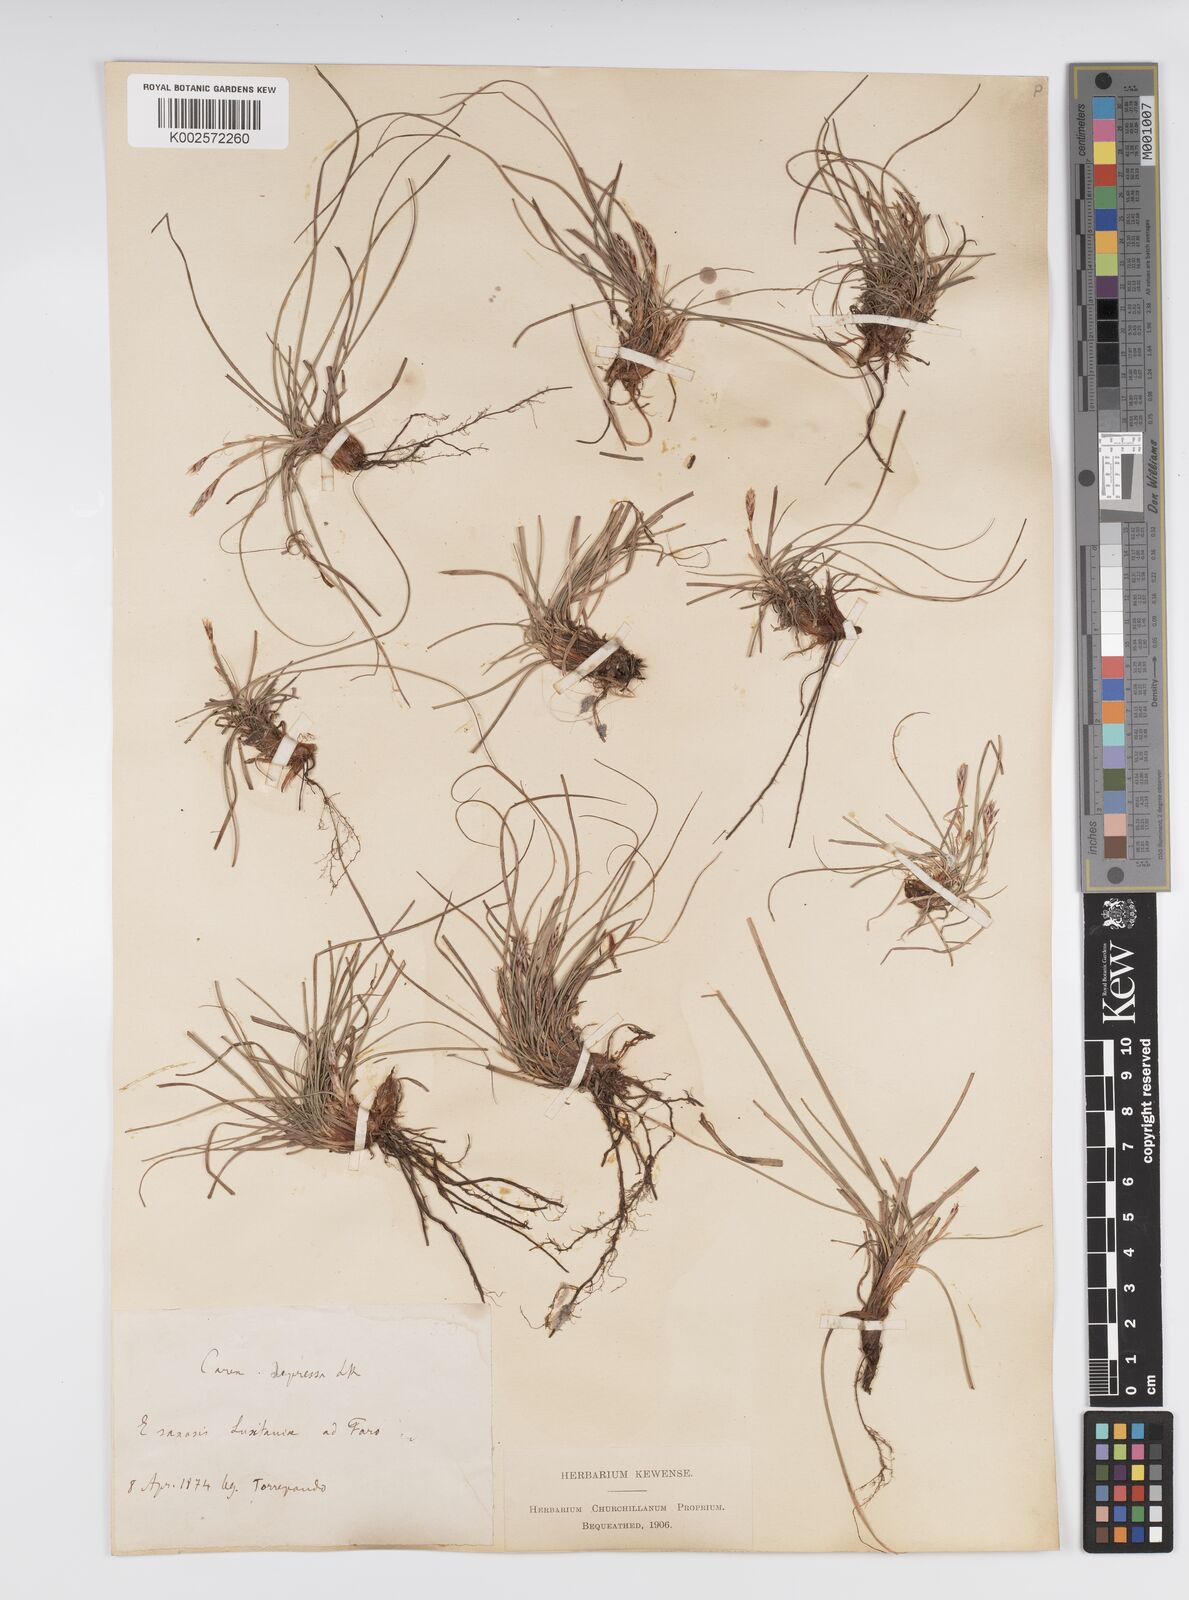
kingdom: Plantae
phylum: Tracheophyta
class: Liliopsida
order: Poales
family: Cyperaceae
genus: Carex
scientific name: Carex humilis
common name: Dwarf sedge
